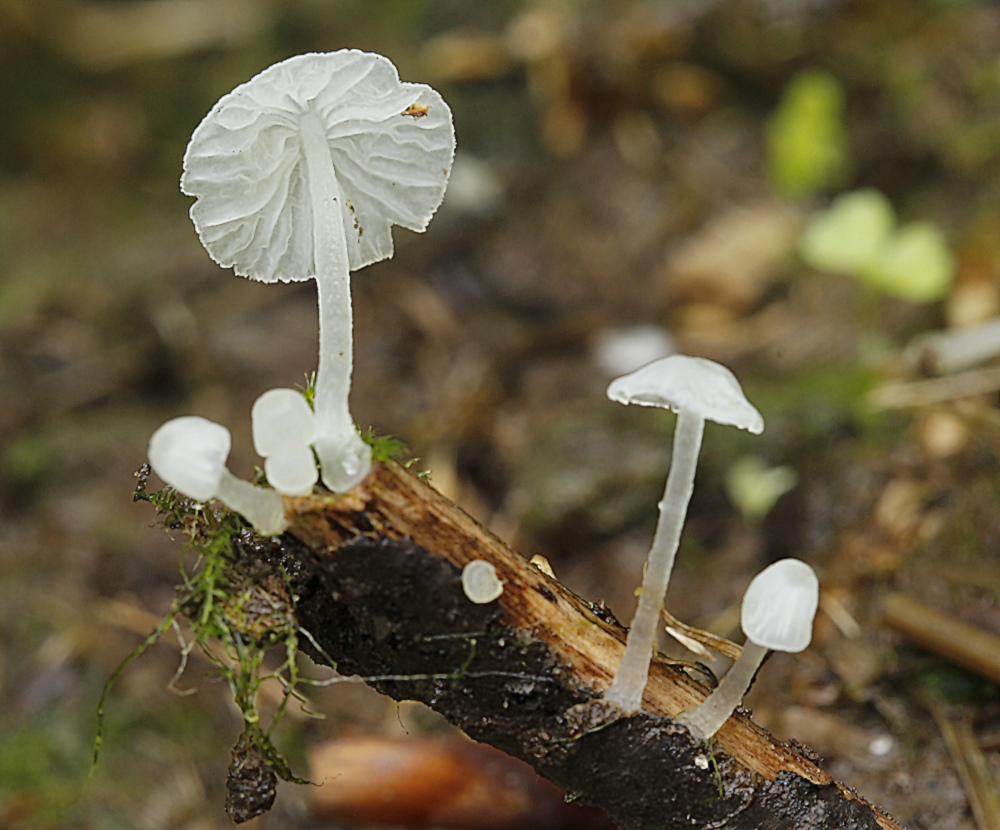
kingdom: Fungi
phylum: Basidiomycota
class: Agaricomycetes
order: Agaricales
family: Tricholomataceae
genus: Delicatula
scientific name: Delicatula integrella
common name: slørhuesvamp
